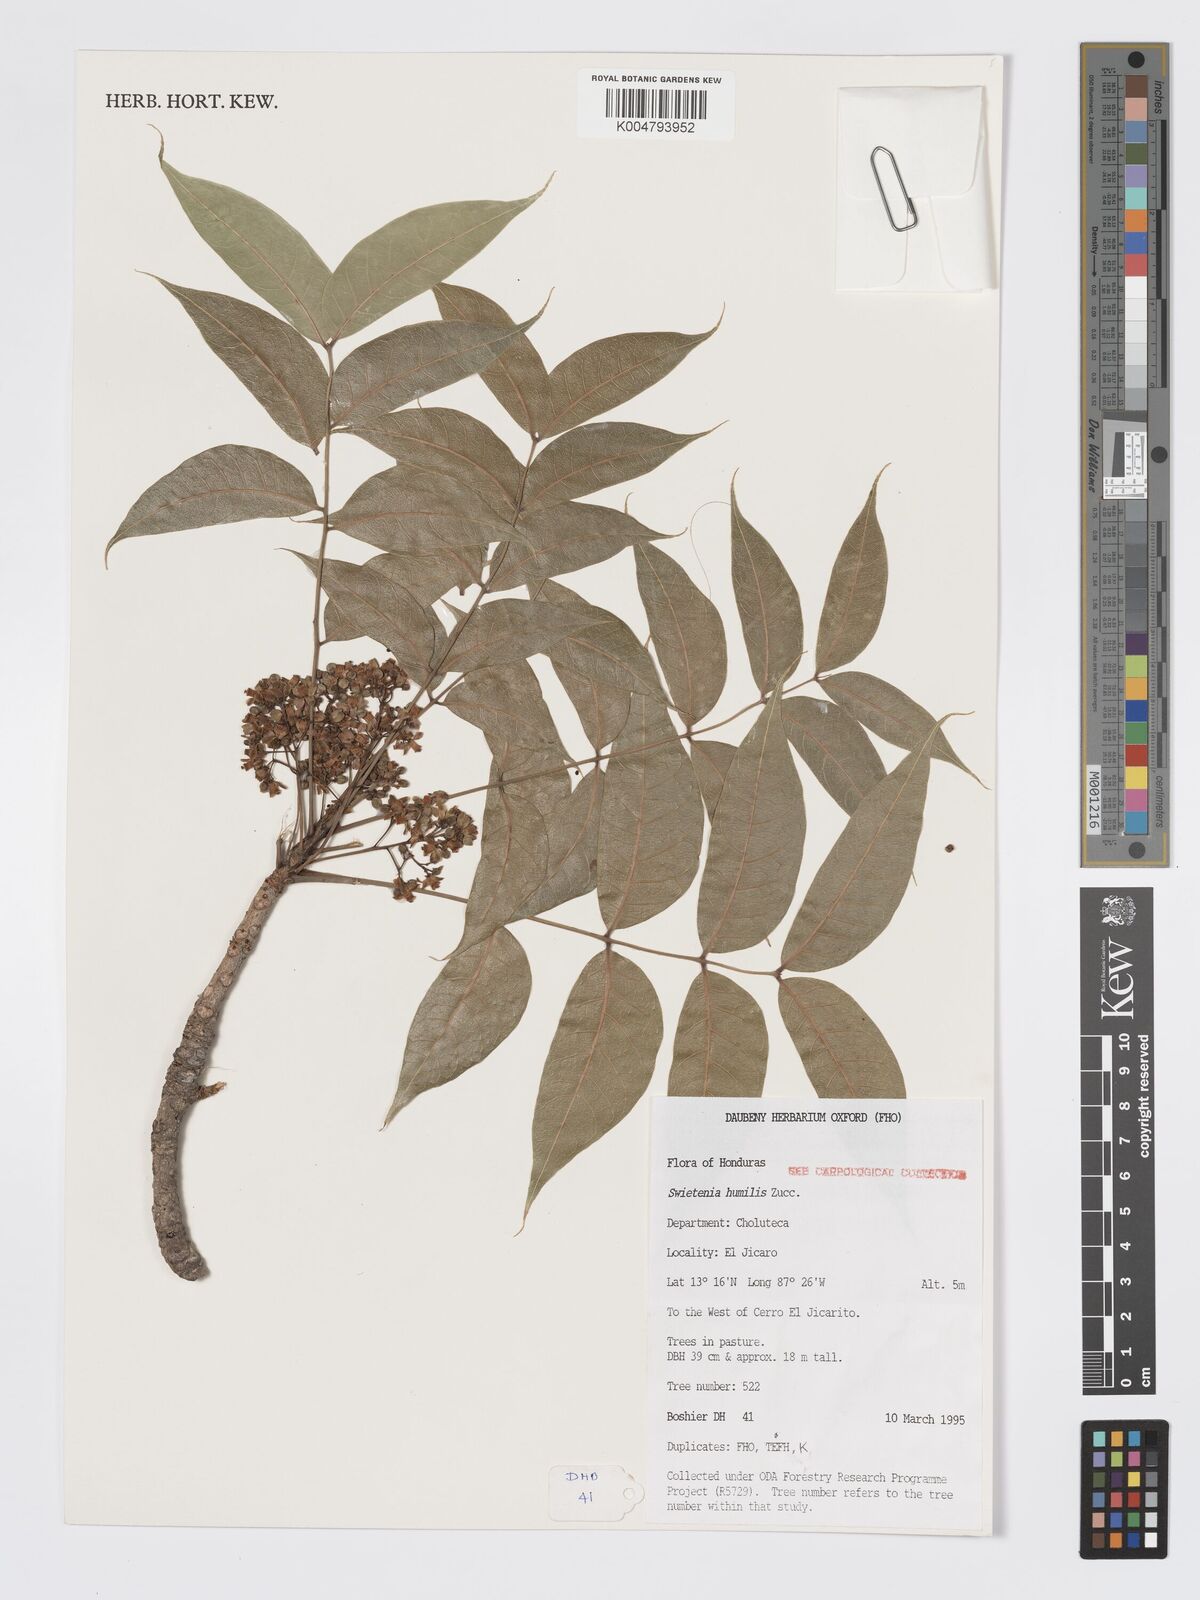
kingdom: Plantae
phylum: Tracheophyta
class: Magnoliopsida
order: Sapindales
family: Meliaceae
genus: Swietenia
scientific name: Swietenia humilis
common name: Pacific coast mahogany
